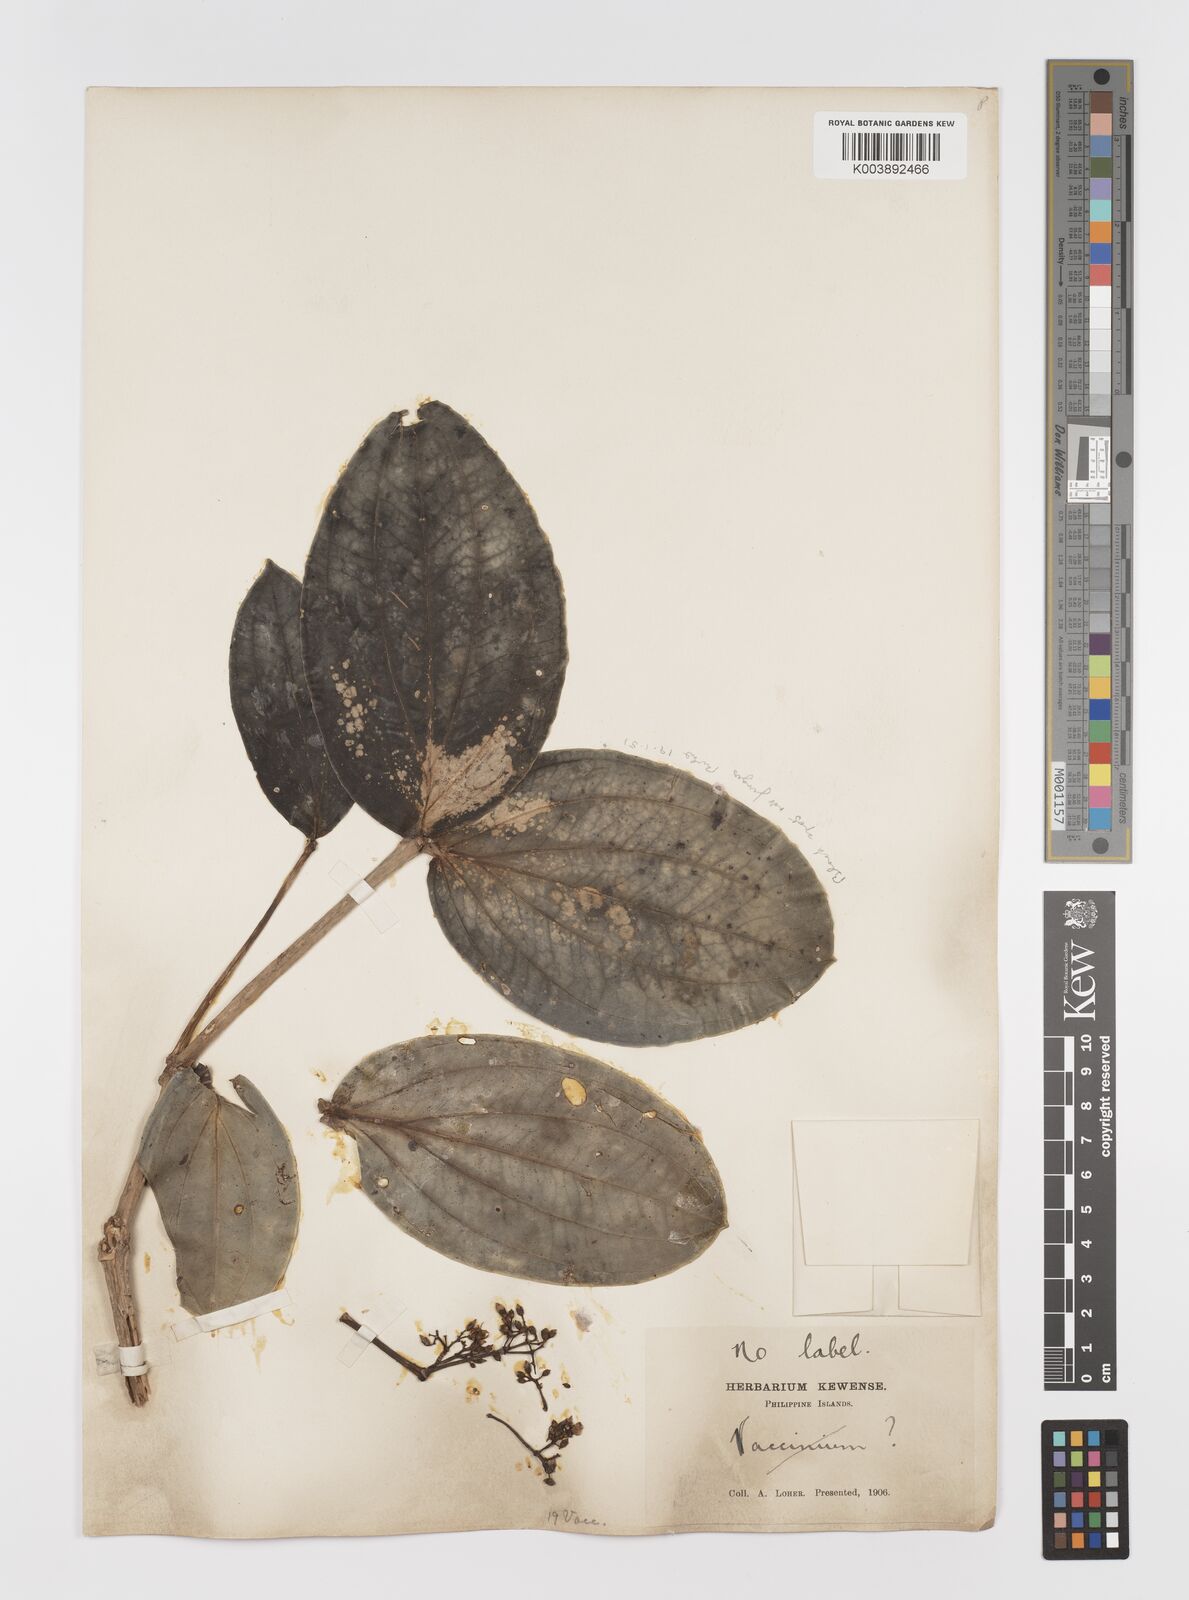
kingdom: Plantae
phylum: Tracheophyta
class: Magnoliopsida
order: Myrtales
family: Melastomataceae
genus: Medinilla
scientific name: Medinilla binaria
